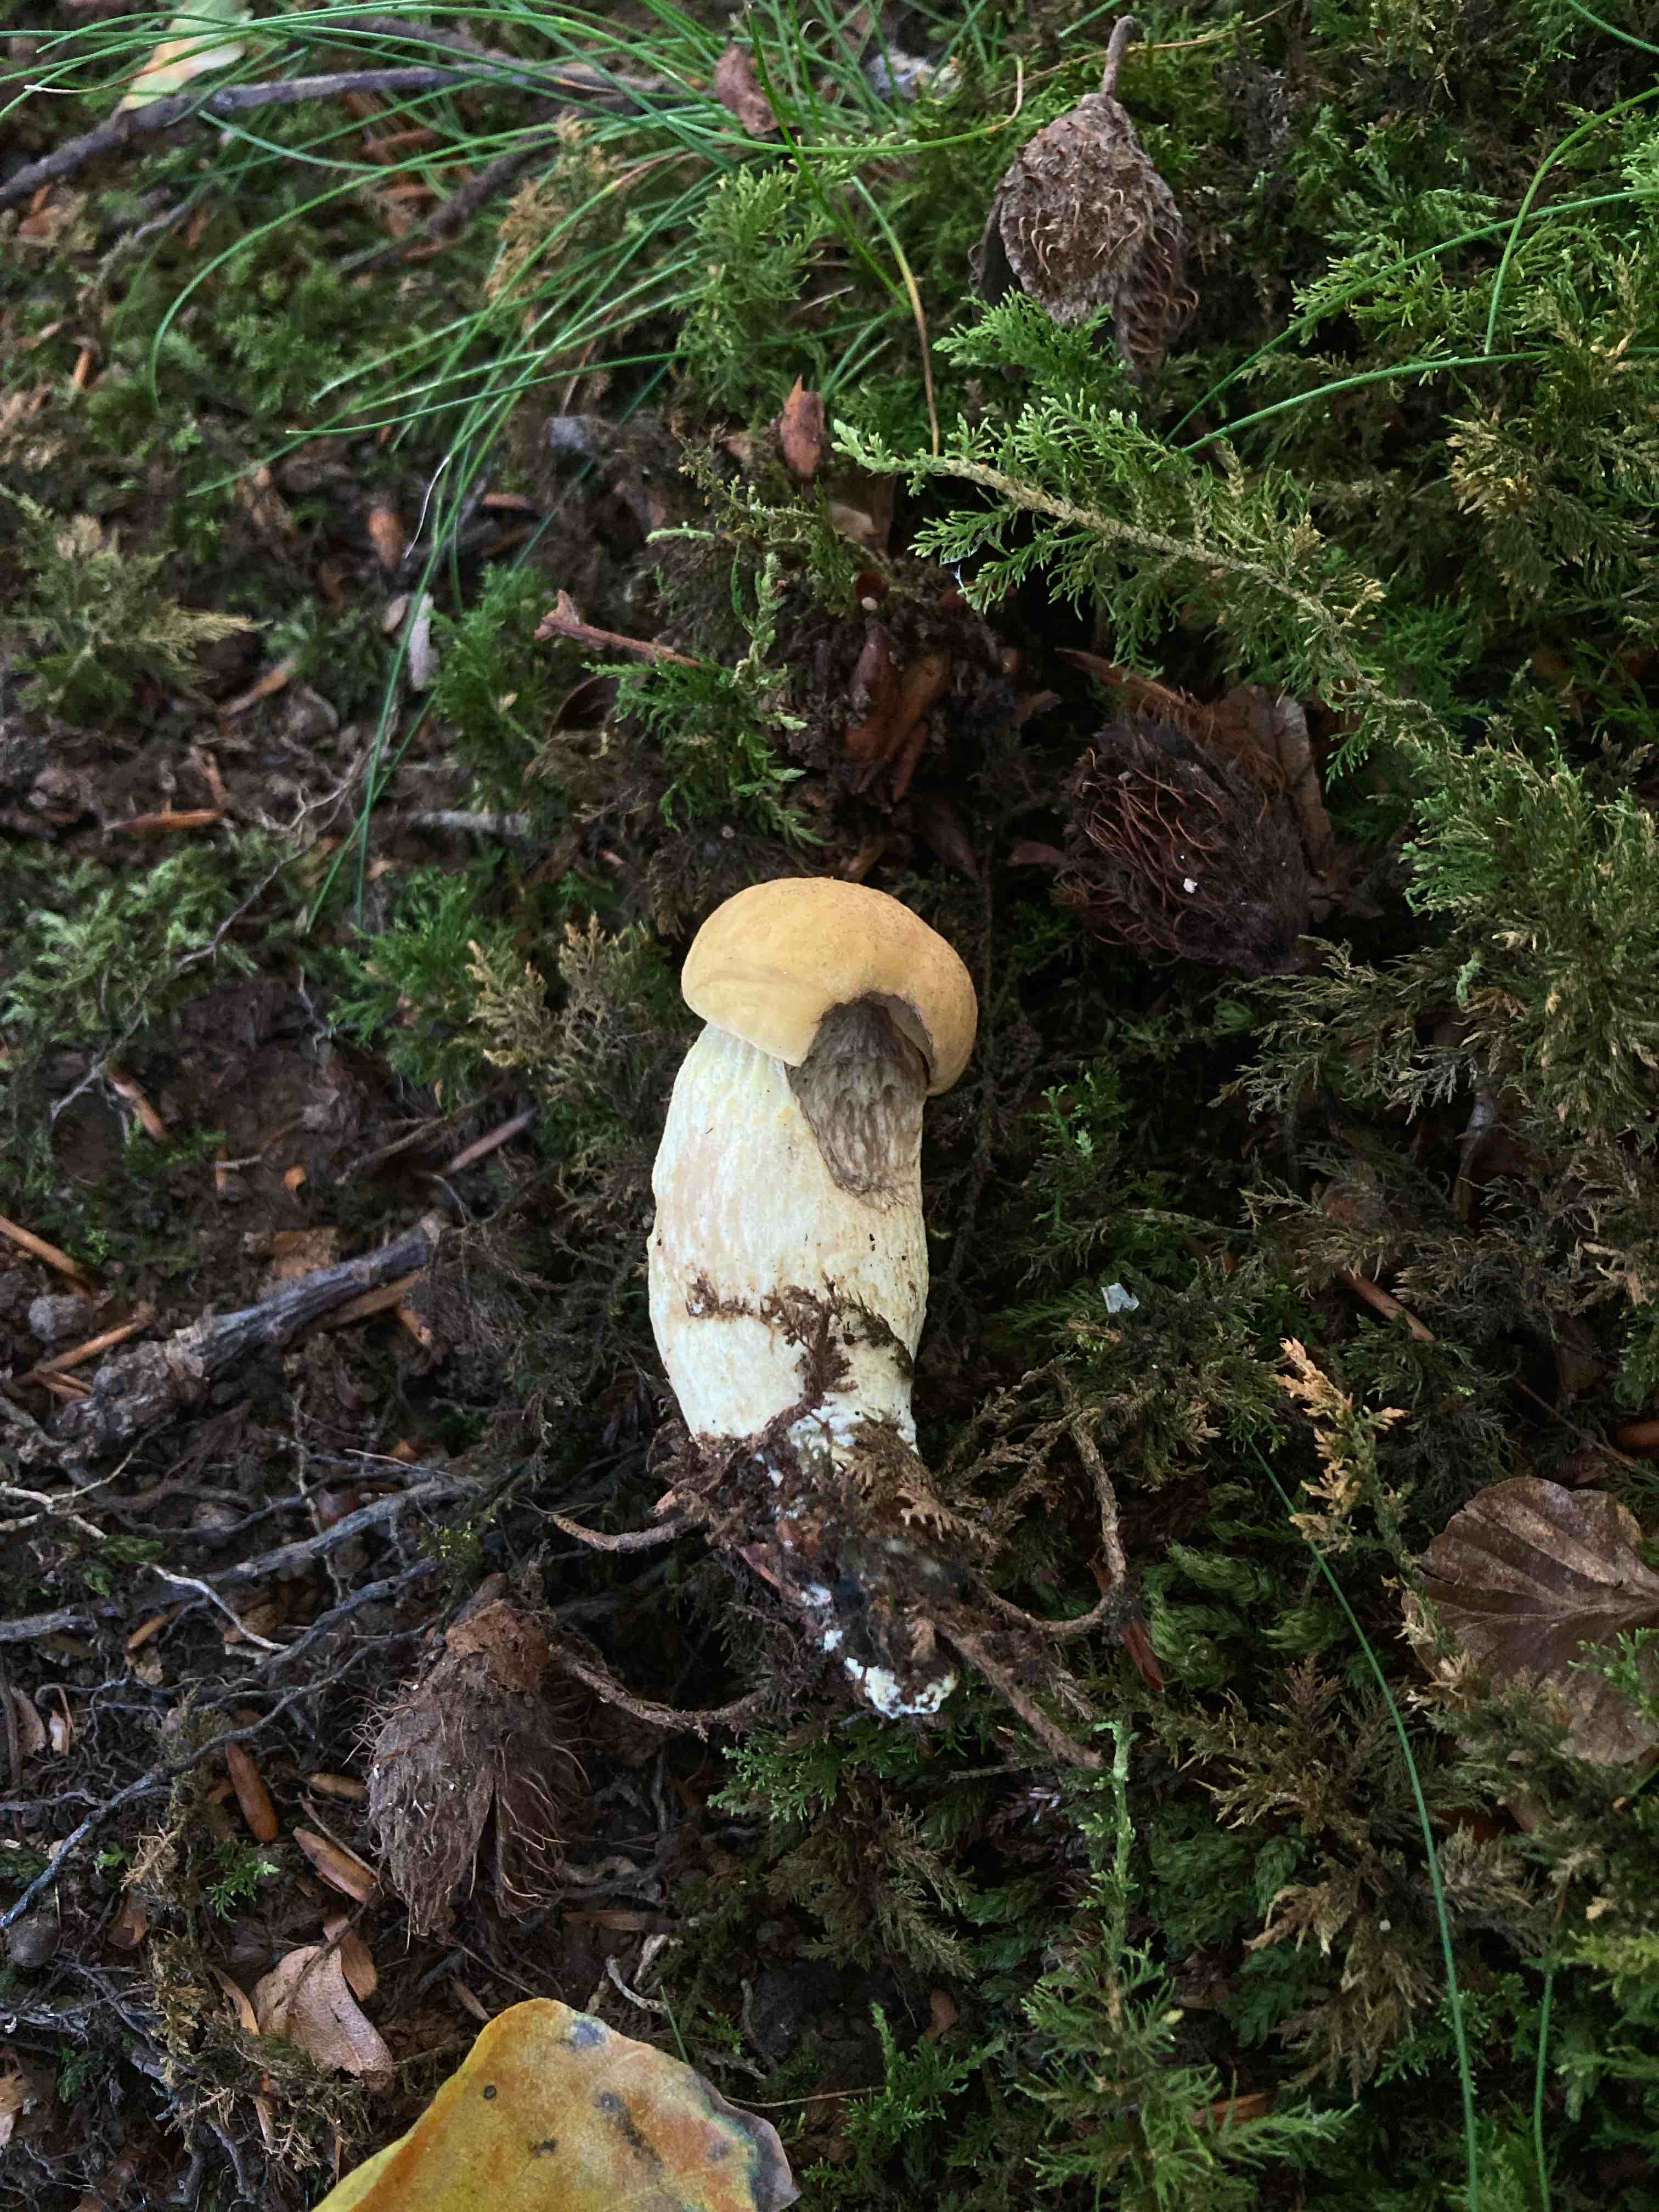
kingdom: Fungi
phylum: Basidiomycota
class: Agaricomycetes
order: Boletales
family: Boletaceae
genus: Leccinellum
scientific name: Leccinellum crocipodium
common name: gul skælrørhat
